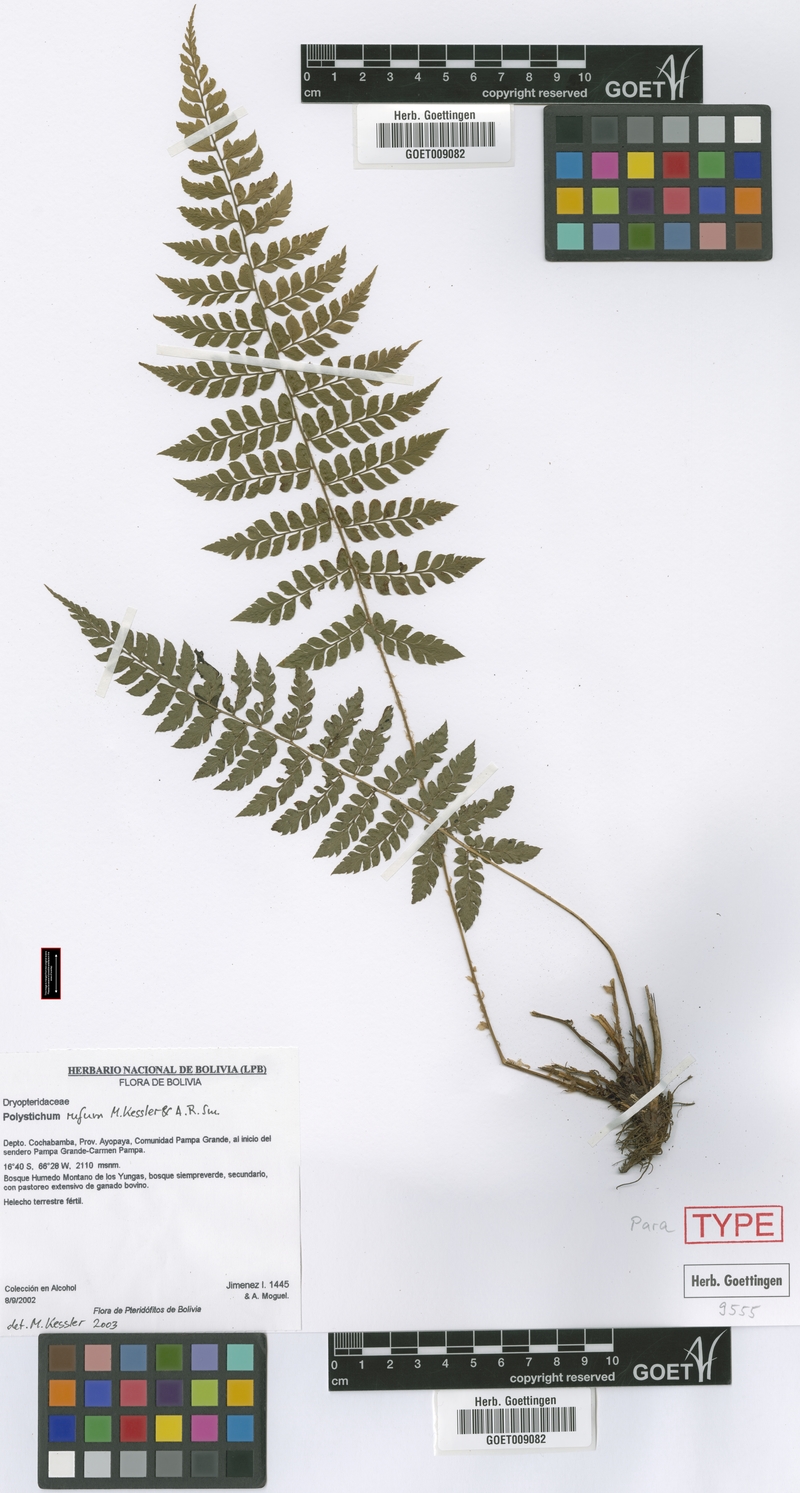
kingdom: Plantae
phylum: Tracheophyta
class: Polypodiopsida
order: Polypodiales
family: Dryopteridaceae
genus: Polystichum
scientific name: Polystichum rufum
